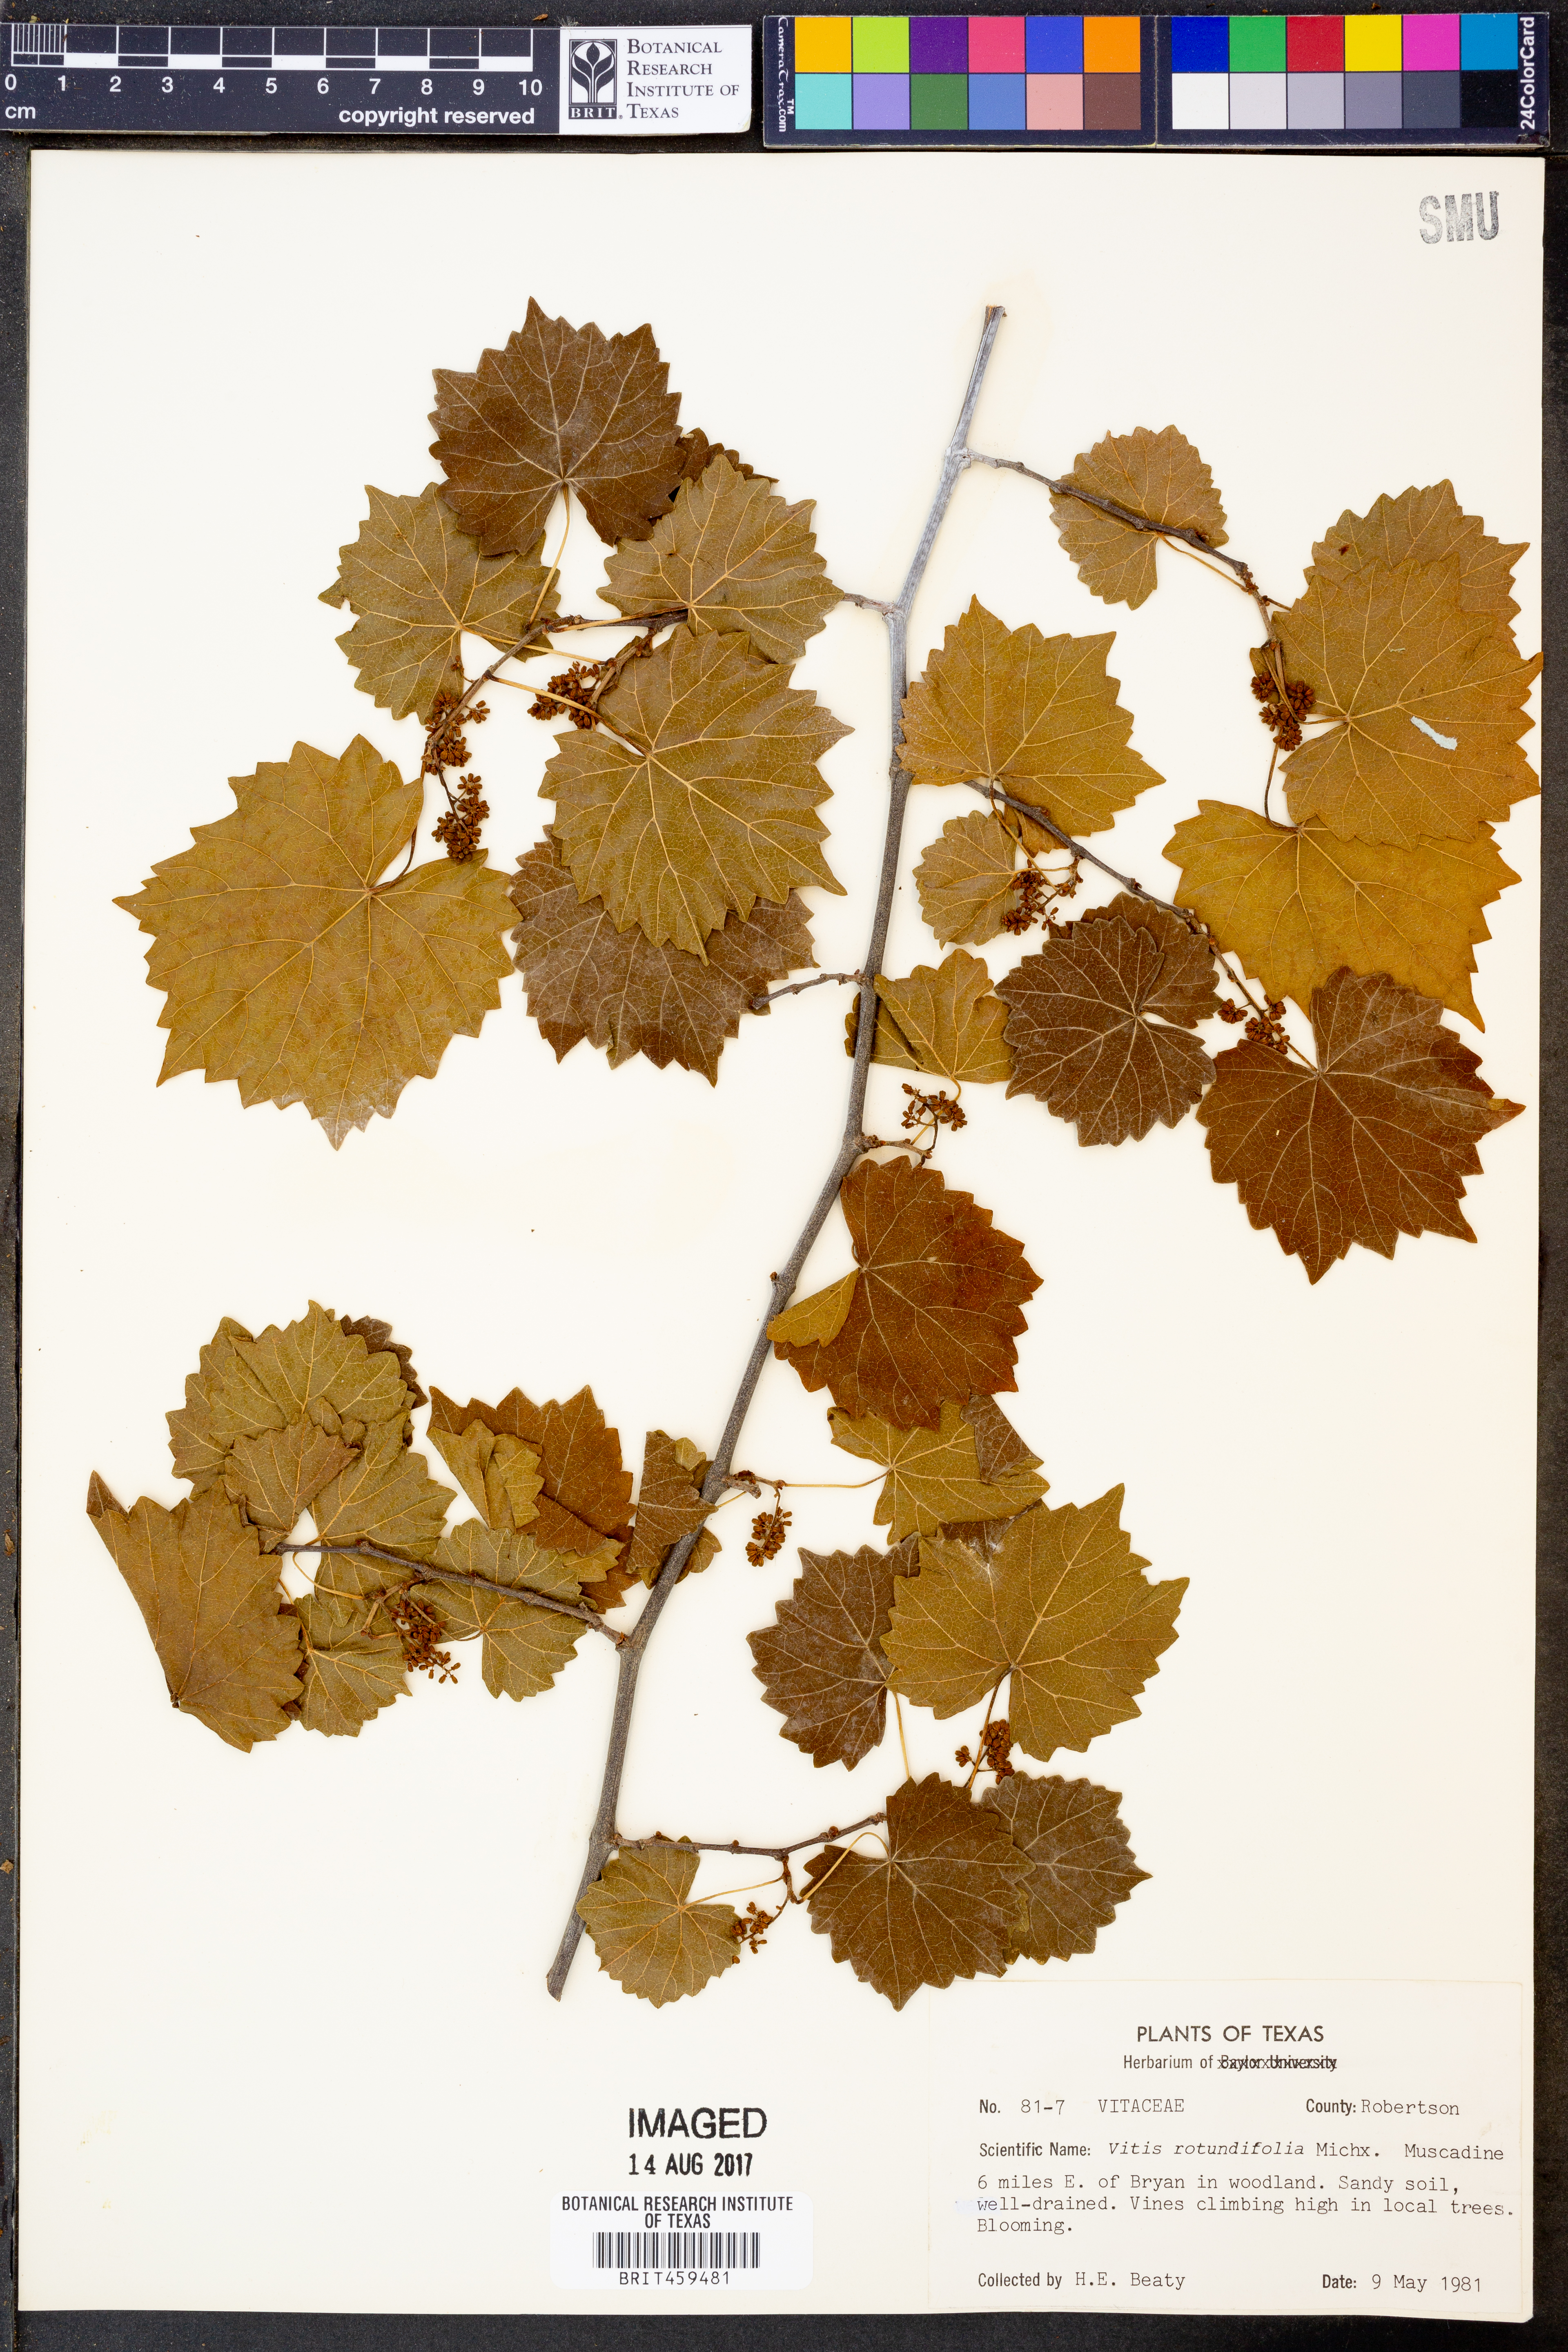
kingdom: Plantae
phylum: Tracheophyta
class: Magnoliopsida
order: Vitales
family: Vitaceae
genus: Vitis
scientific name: Vitis rotundifolia
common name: Muscadine grape
